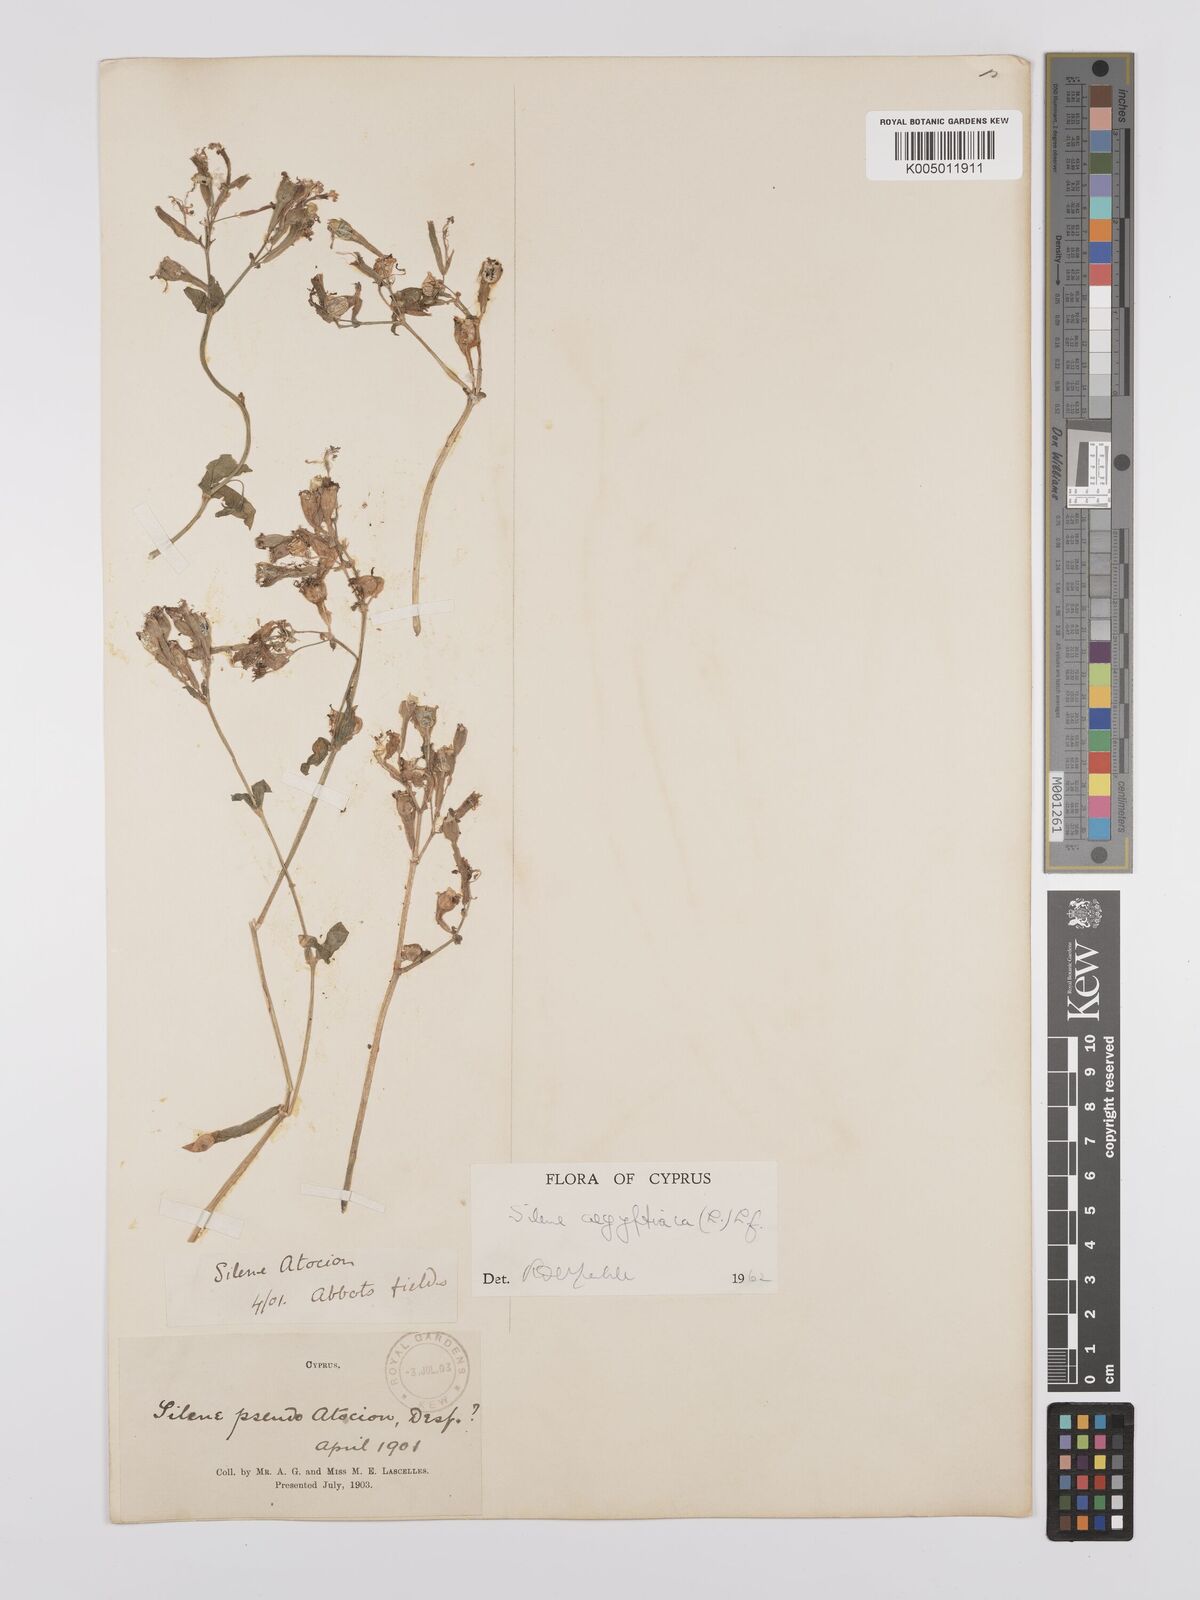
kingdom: Plantae
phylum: Tracheophyta
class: Magnoliopsida
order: Caryophyllales
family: Caryophyllaceae
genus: Silene
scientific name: Silene aegyptiaca
